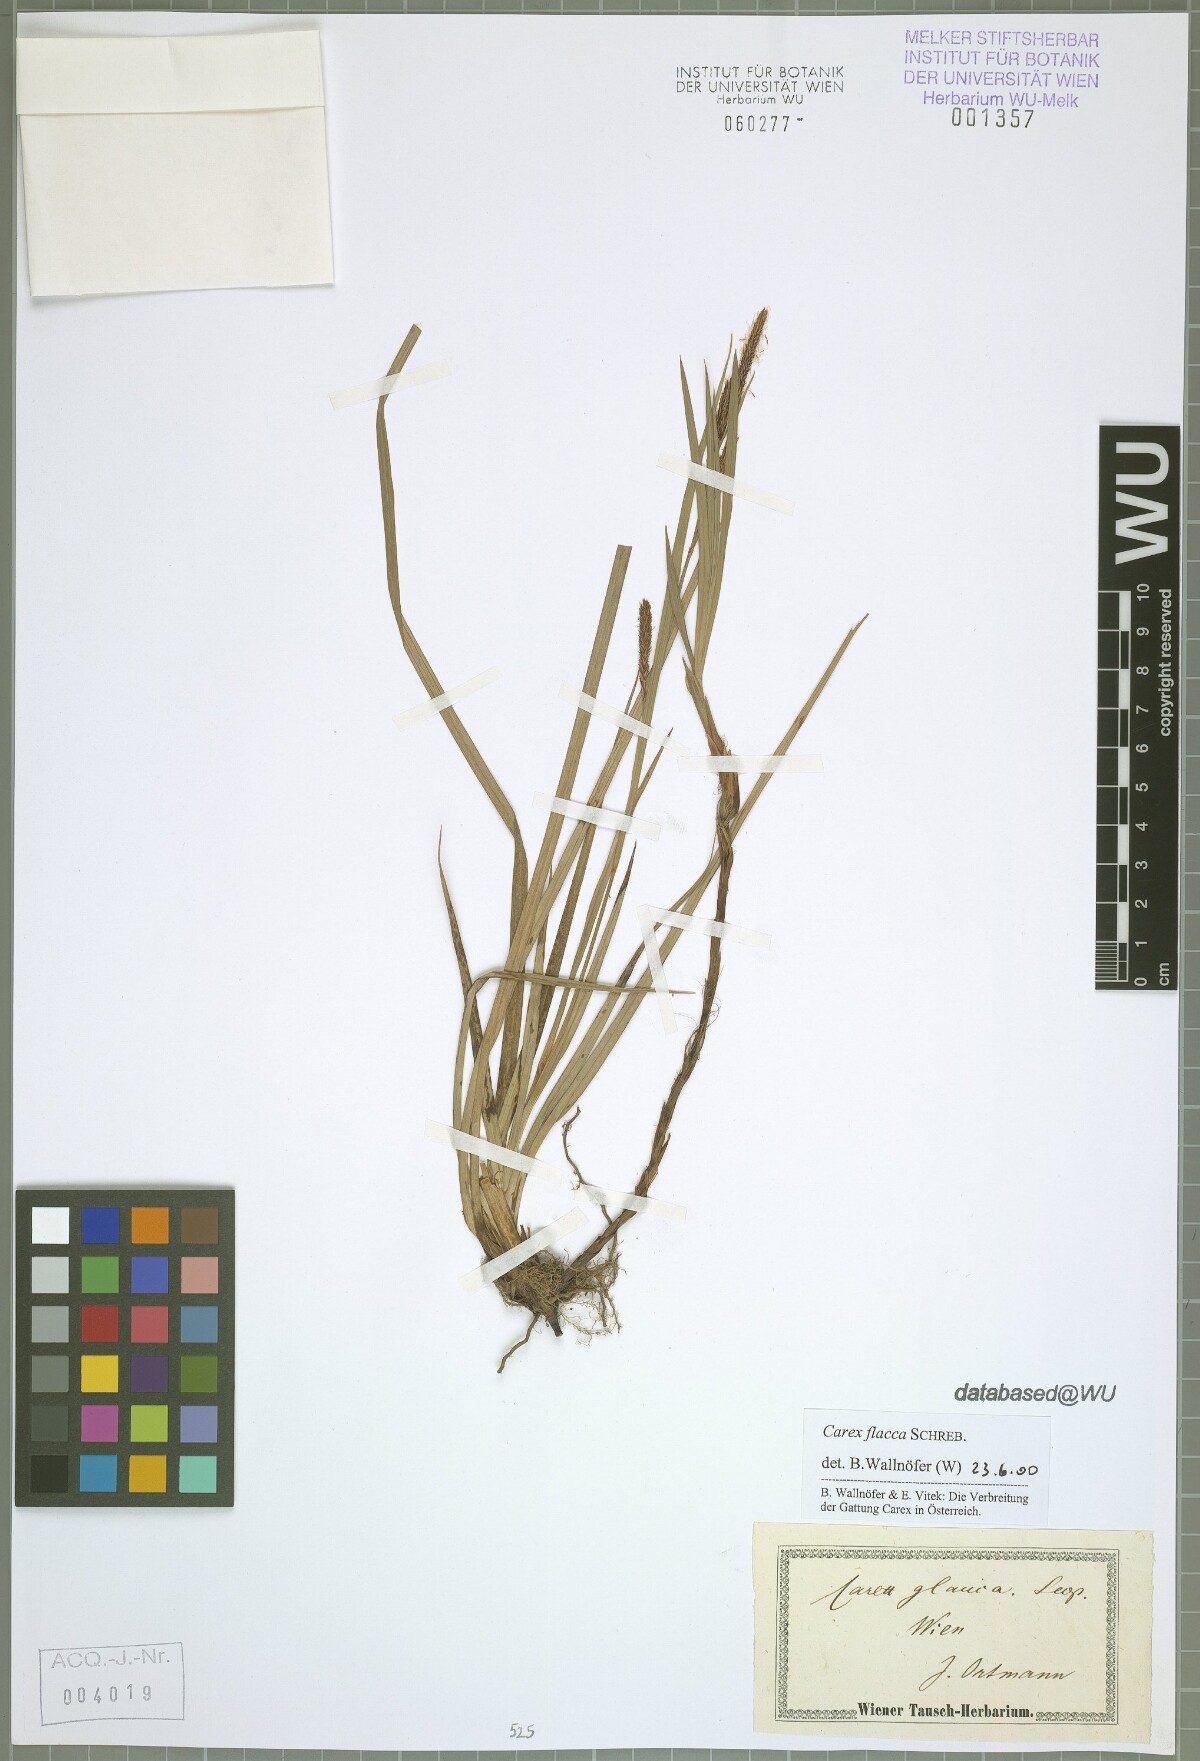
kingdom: Plantae
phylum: Tracheophyta
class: Liliopsida
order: Poales
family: Cyperaceae
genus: Carex
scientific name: Carex flacca
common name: Glaucous sedge
